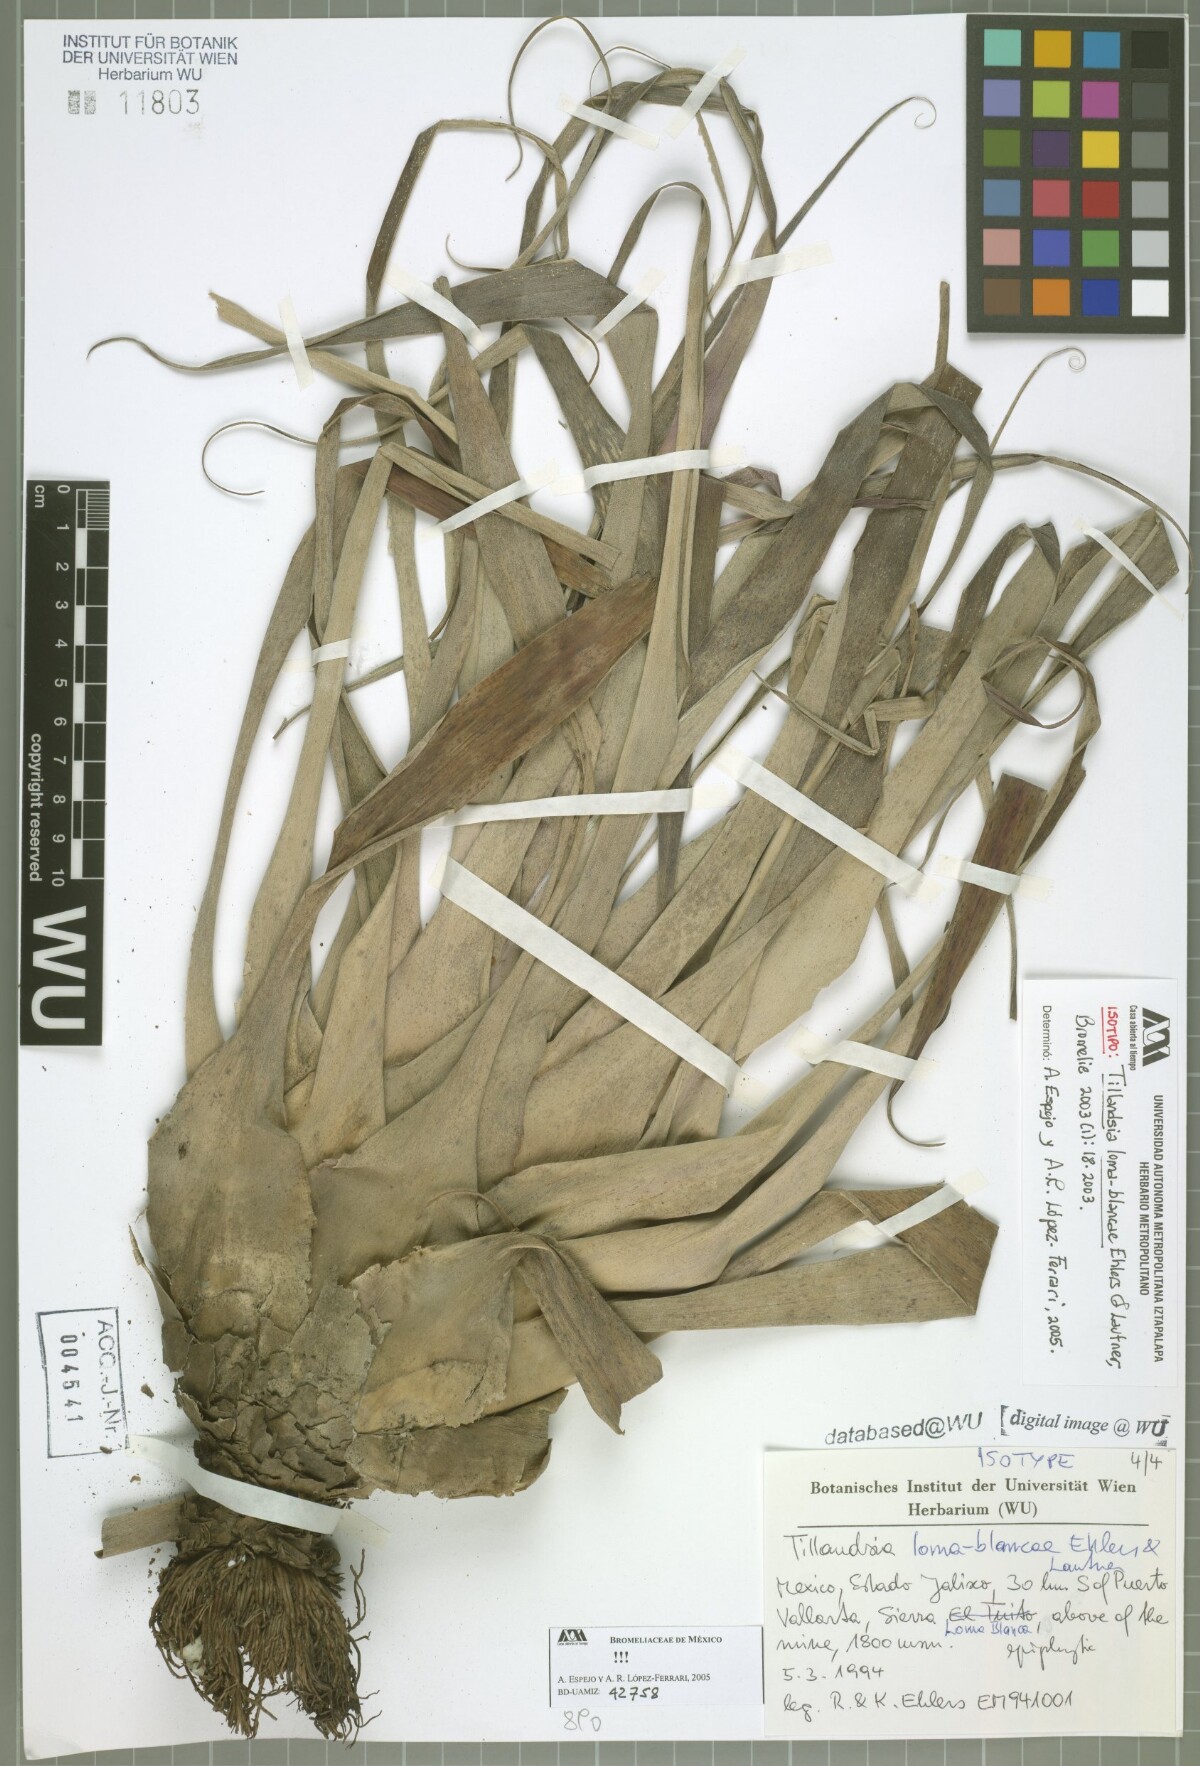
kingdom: Plantae
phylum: Tracheophyta
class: Liliopsida
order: Poales
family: Bromeliaceae
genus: Tillandsia
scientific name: Tillandsia loma-blancae
